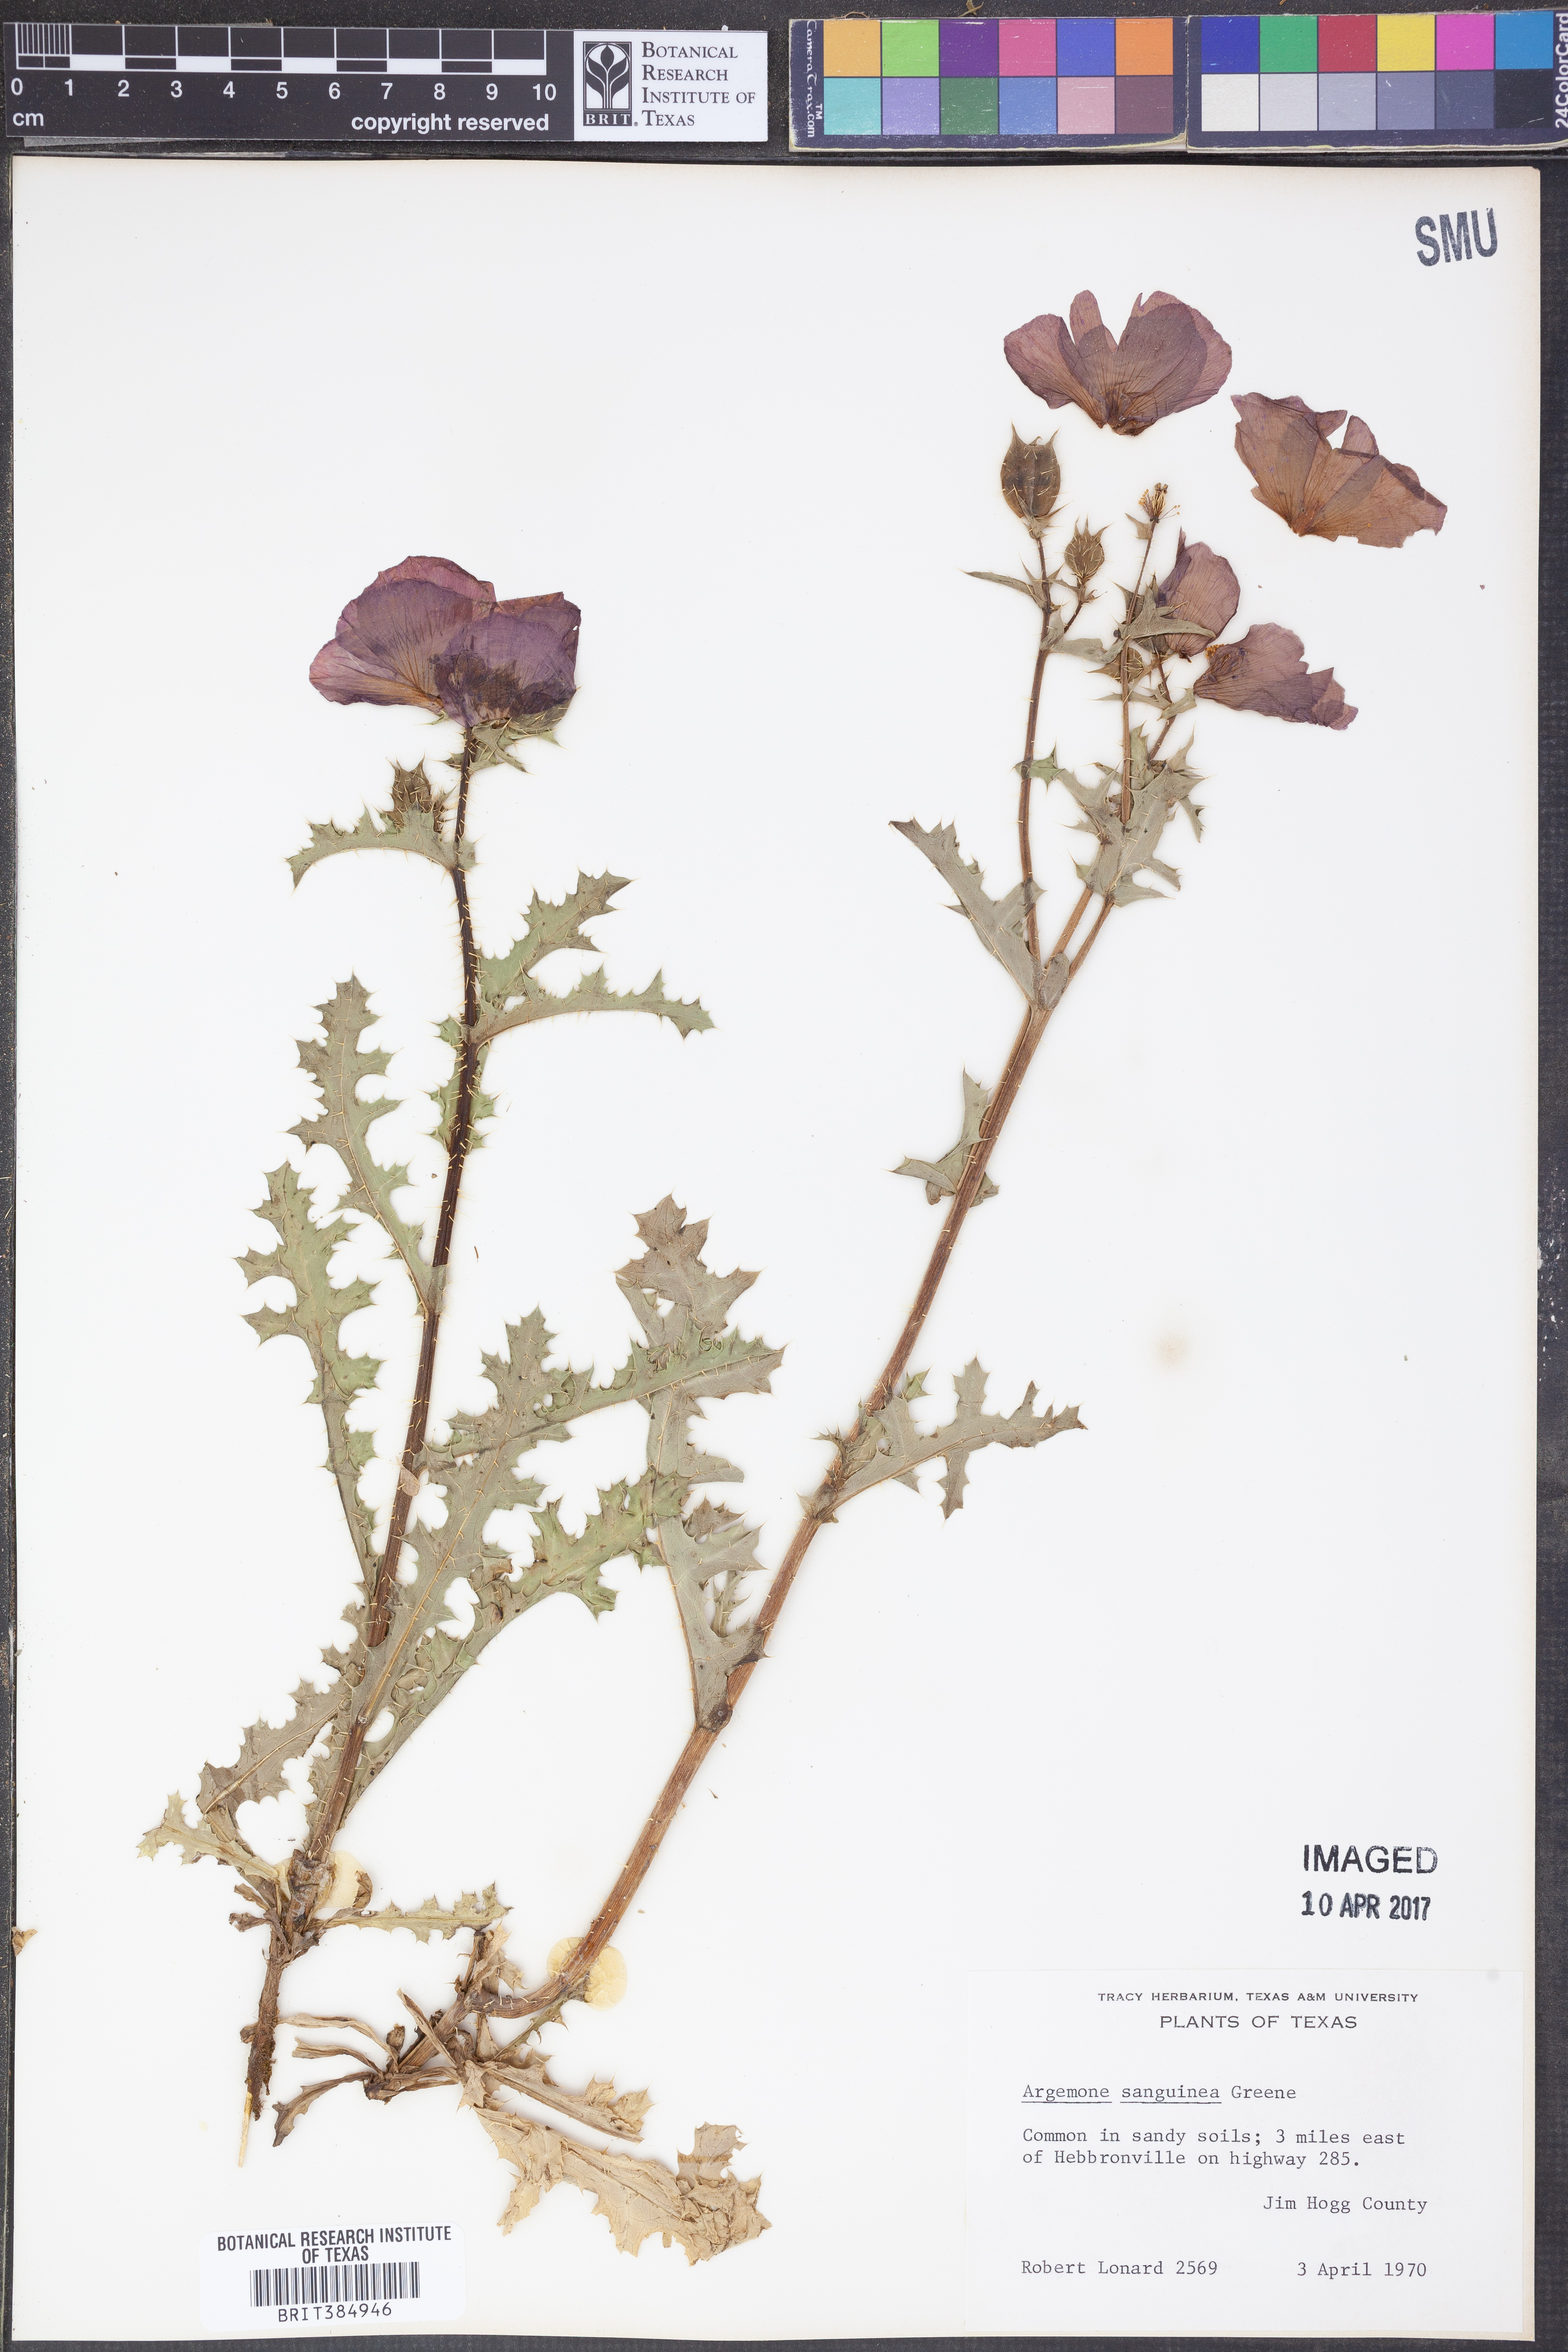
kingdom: Plantae
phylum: Tracheophyta
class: Magnoliopsida
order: Ranunculales
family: Papaveraceae
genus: Argemone
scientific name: Argemone sanguinea
